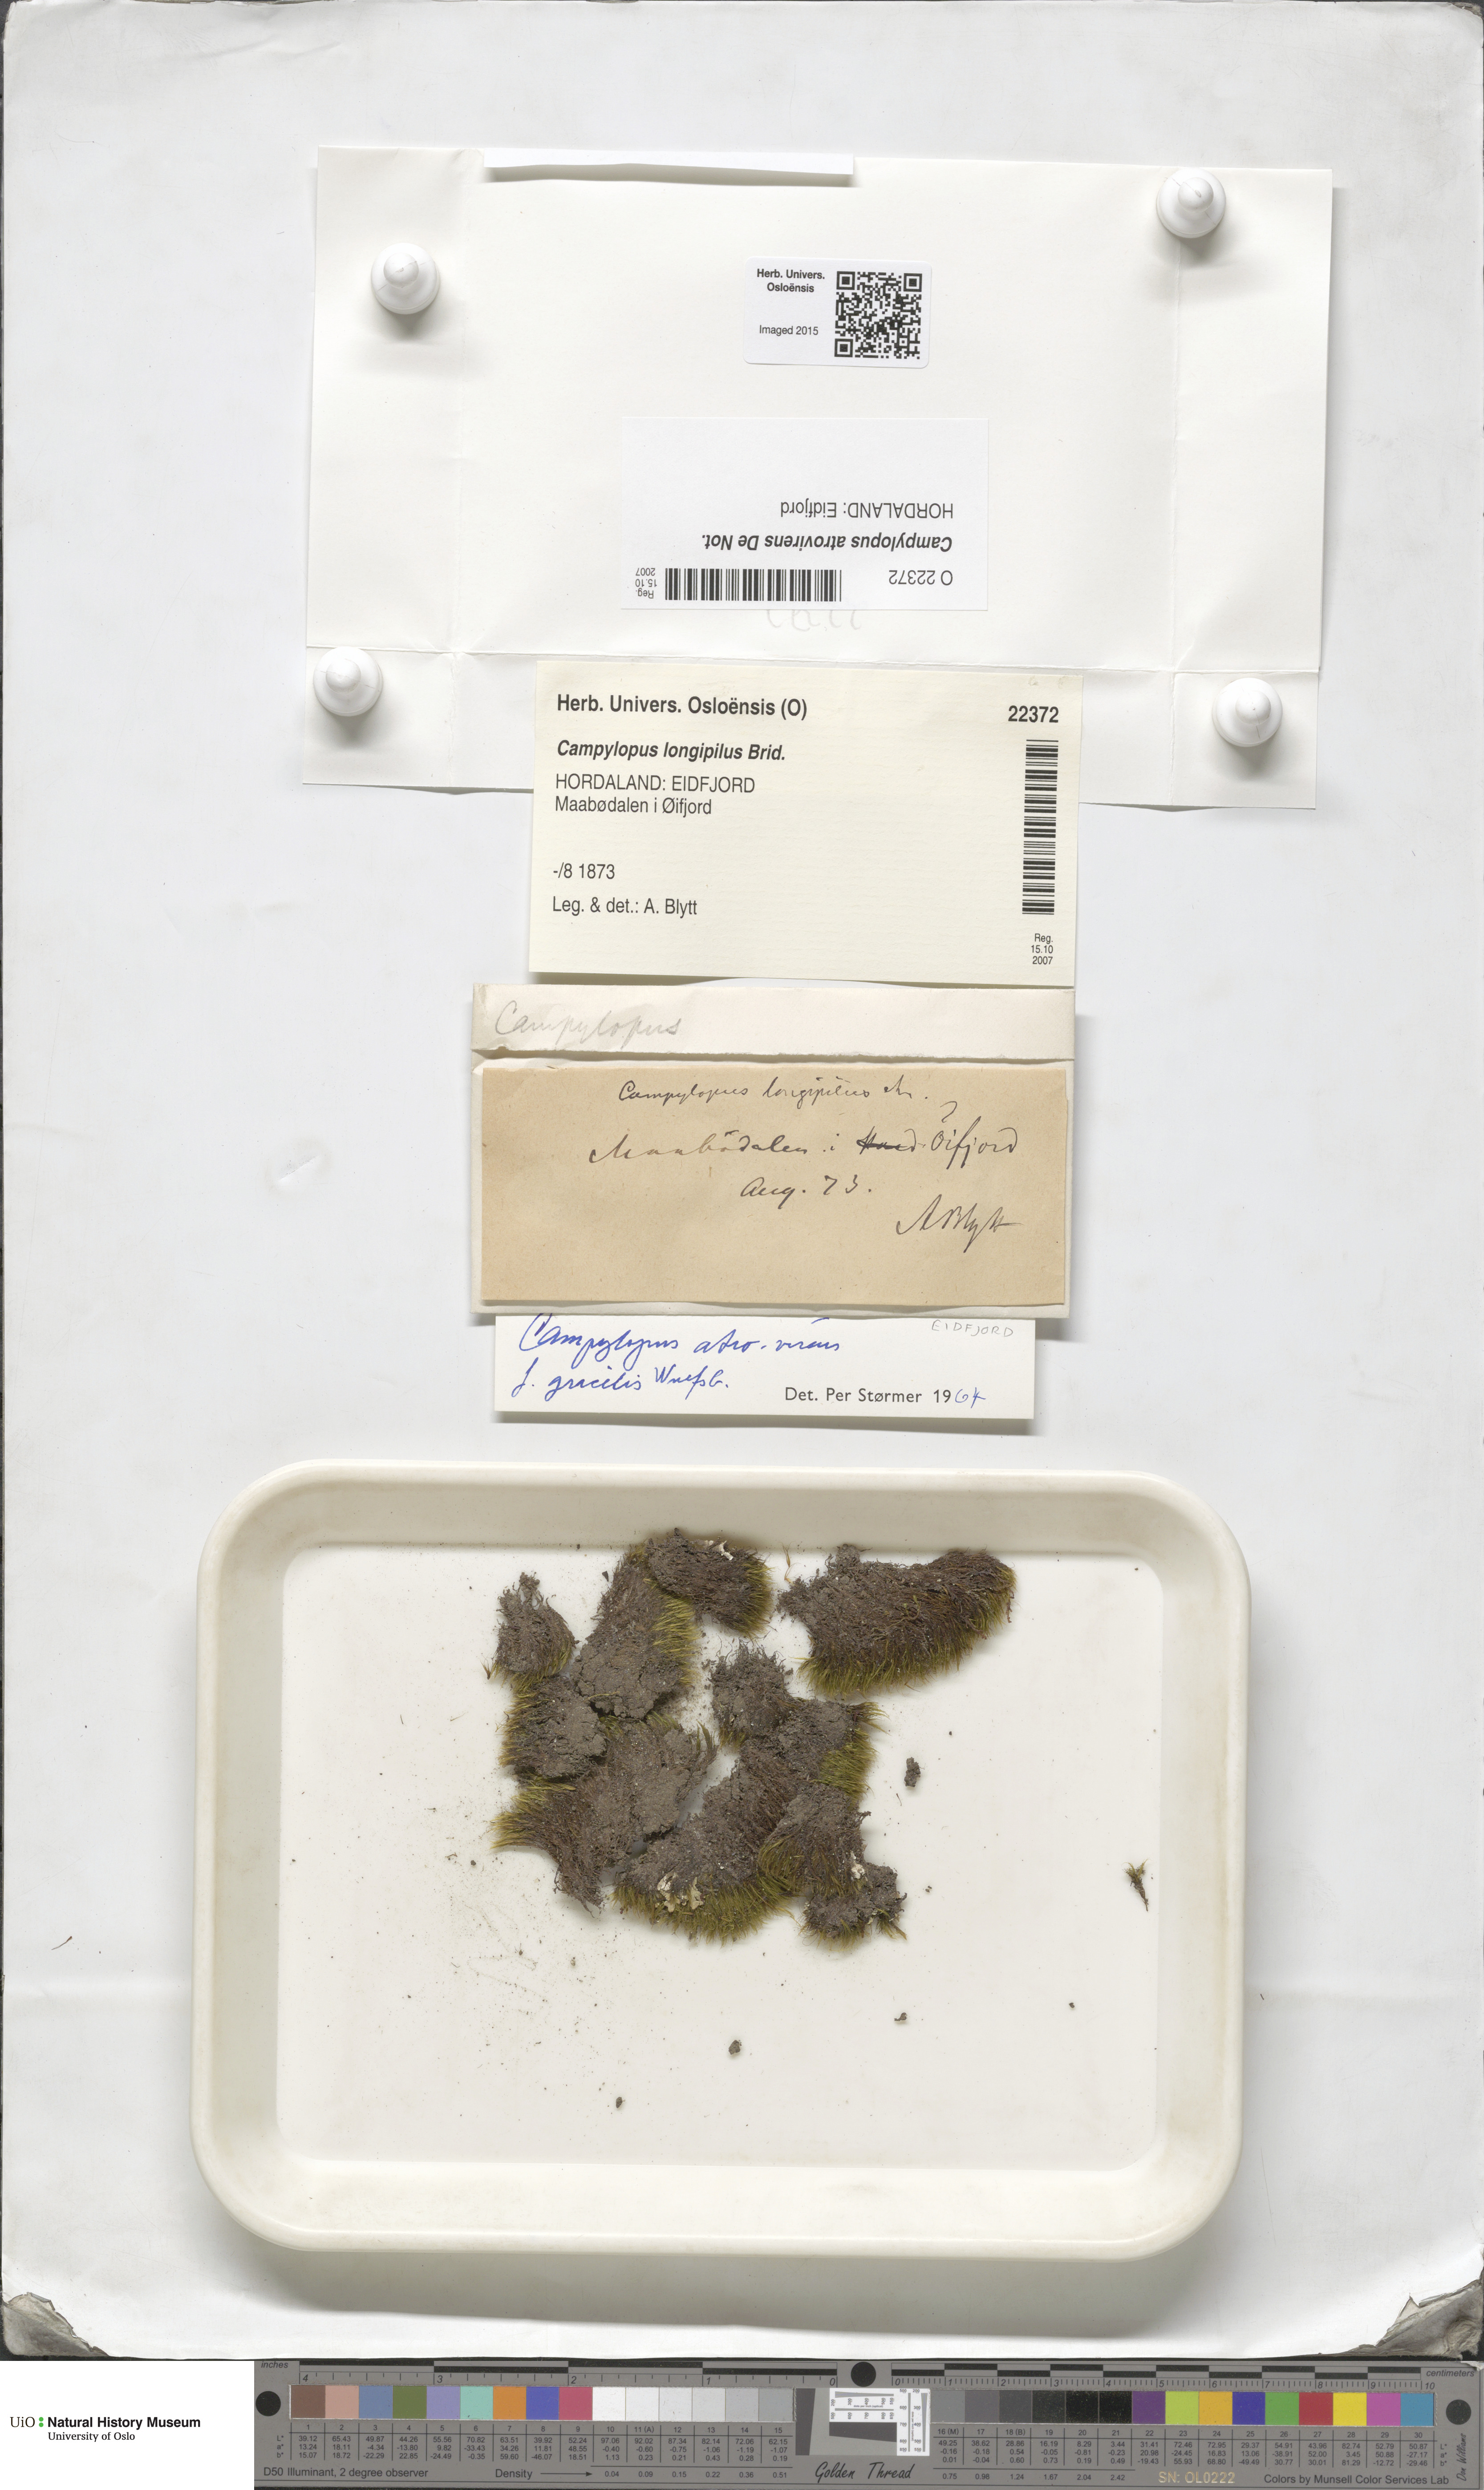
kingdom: Plantae
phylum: Bryophyta
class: Bryopsida
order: Dicranales
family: Leucobryaceae
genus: Campylopus
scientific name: Campylopus atrovirens
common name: Bristly swan-neck moss
